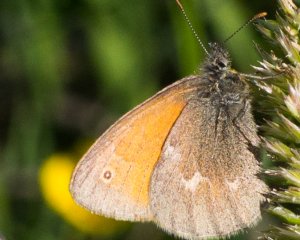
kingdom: Animalia
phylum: Arthropoda
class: Insecta
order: Lepidoptera
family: Nymphalidae
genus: Coenonympha
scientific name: Coenonympha tullia
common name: Large Heath
